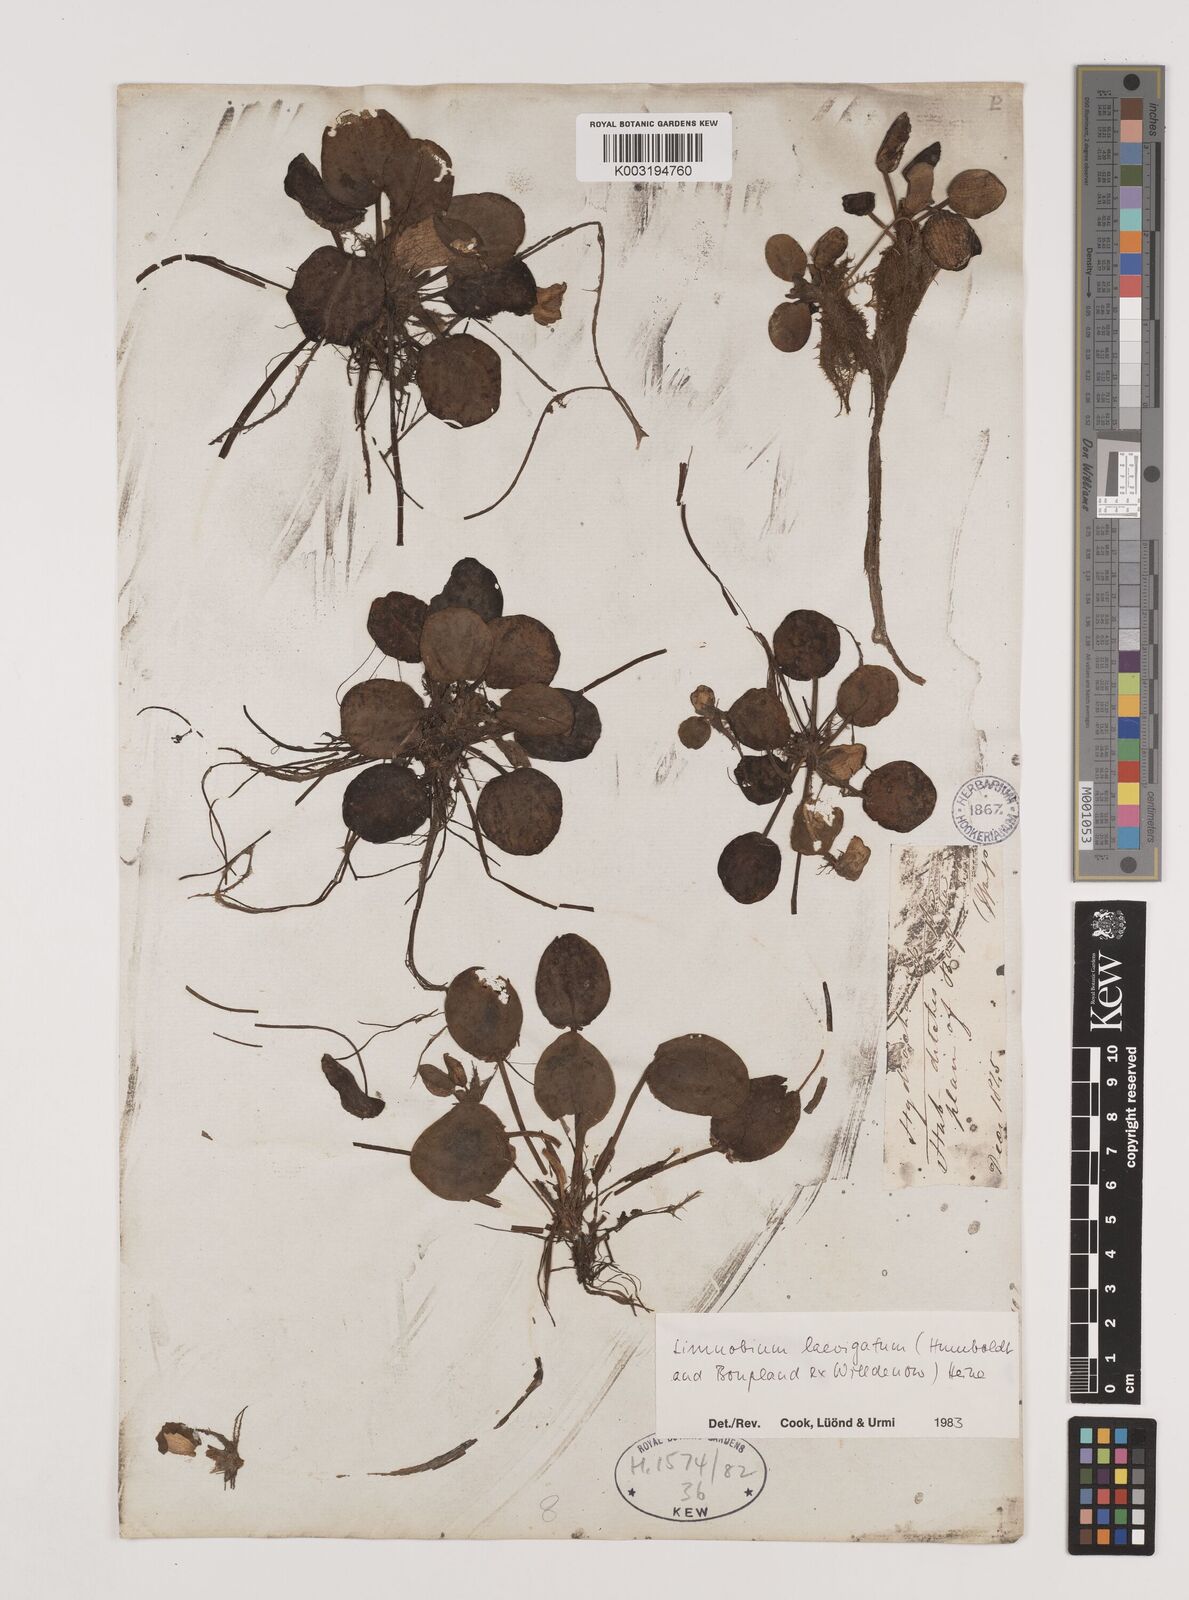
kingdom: Plantae
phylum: Tracheophyta
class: Liliopsida
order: Alismatales
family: Hydrocharitaceae
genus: Hydrocharis
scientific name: Hydrocharis laevigata
